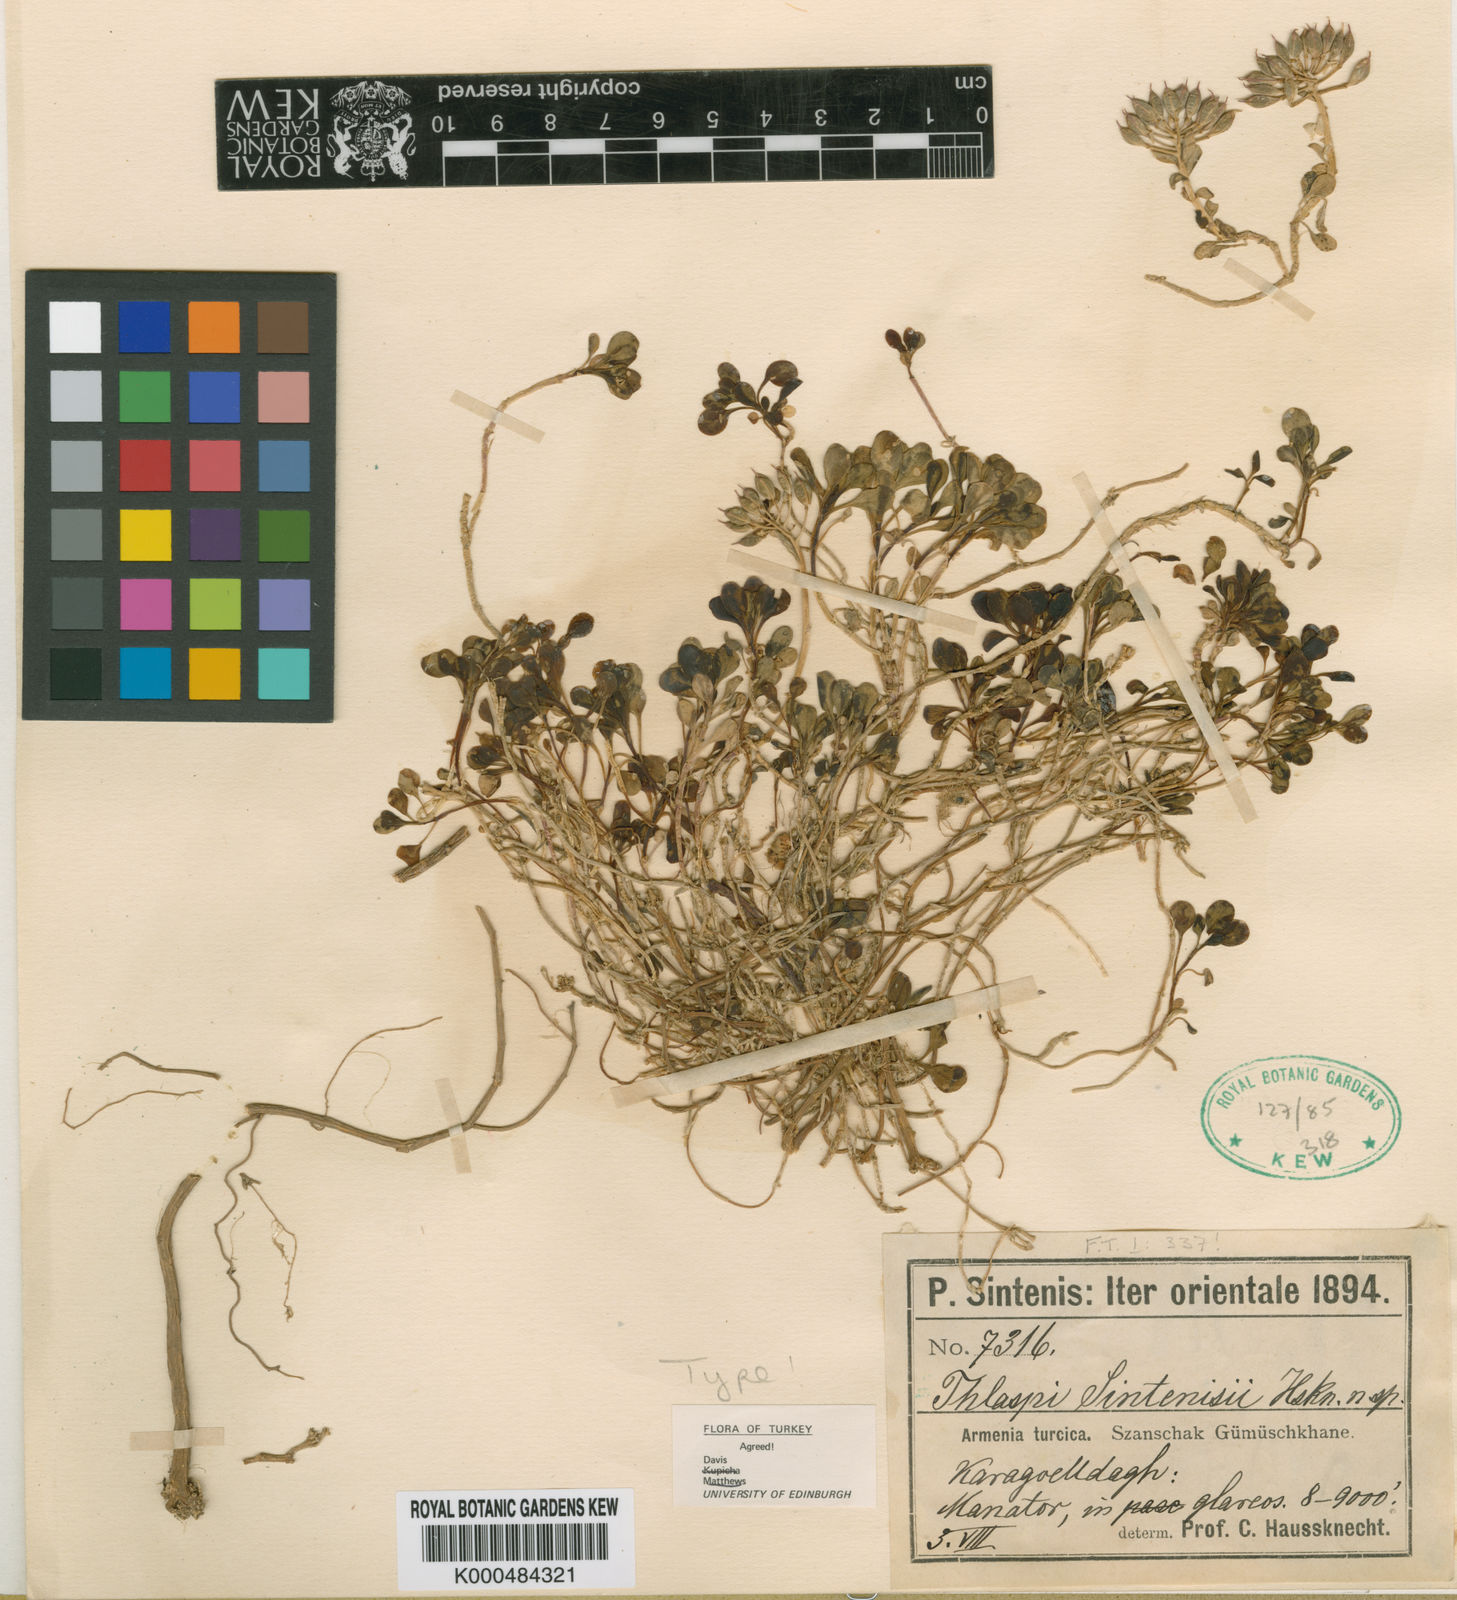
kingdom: Plantae
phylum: Tracheophyta
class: Magnoliopsida
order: Brassicales
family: Brassicaceae
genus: Noccaea
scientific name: Noccaea sintenisii
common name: Sintensis' penny-cress
